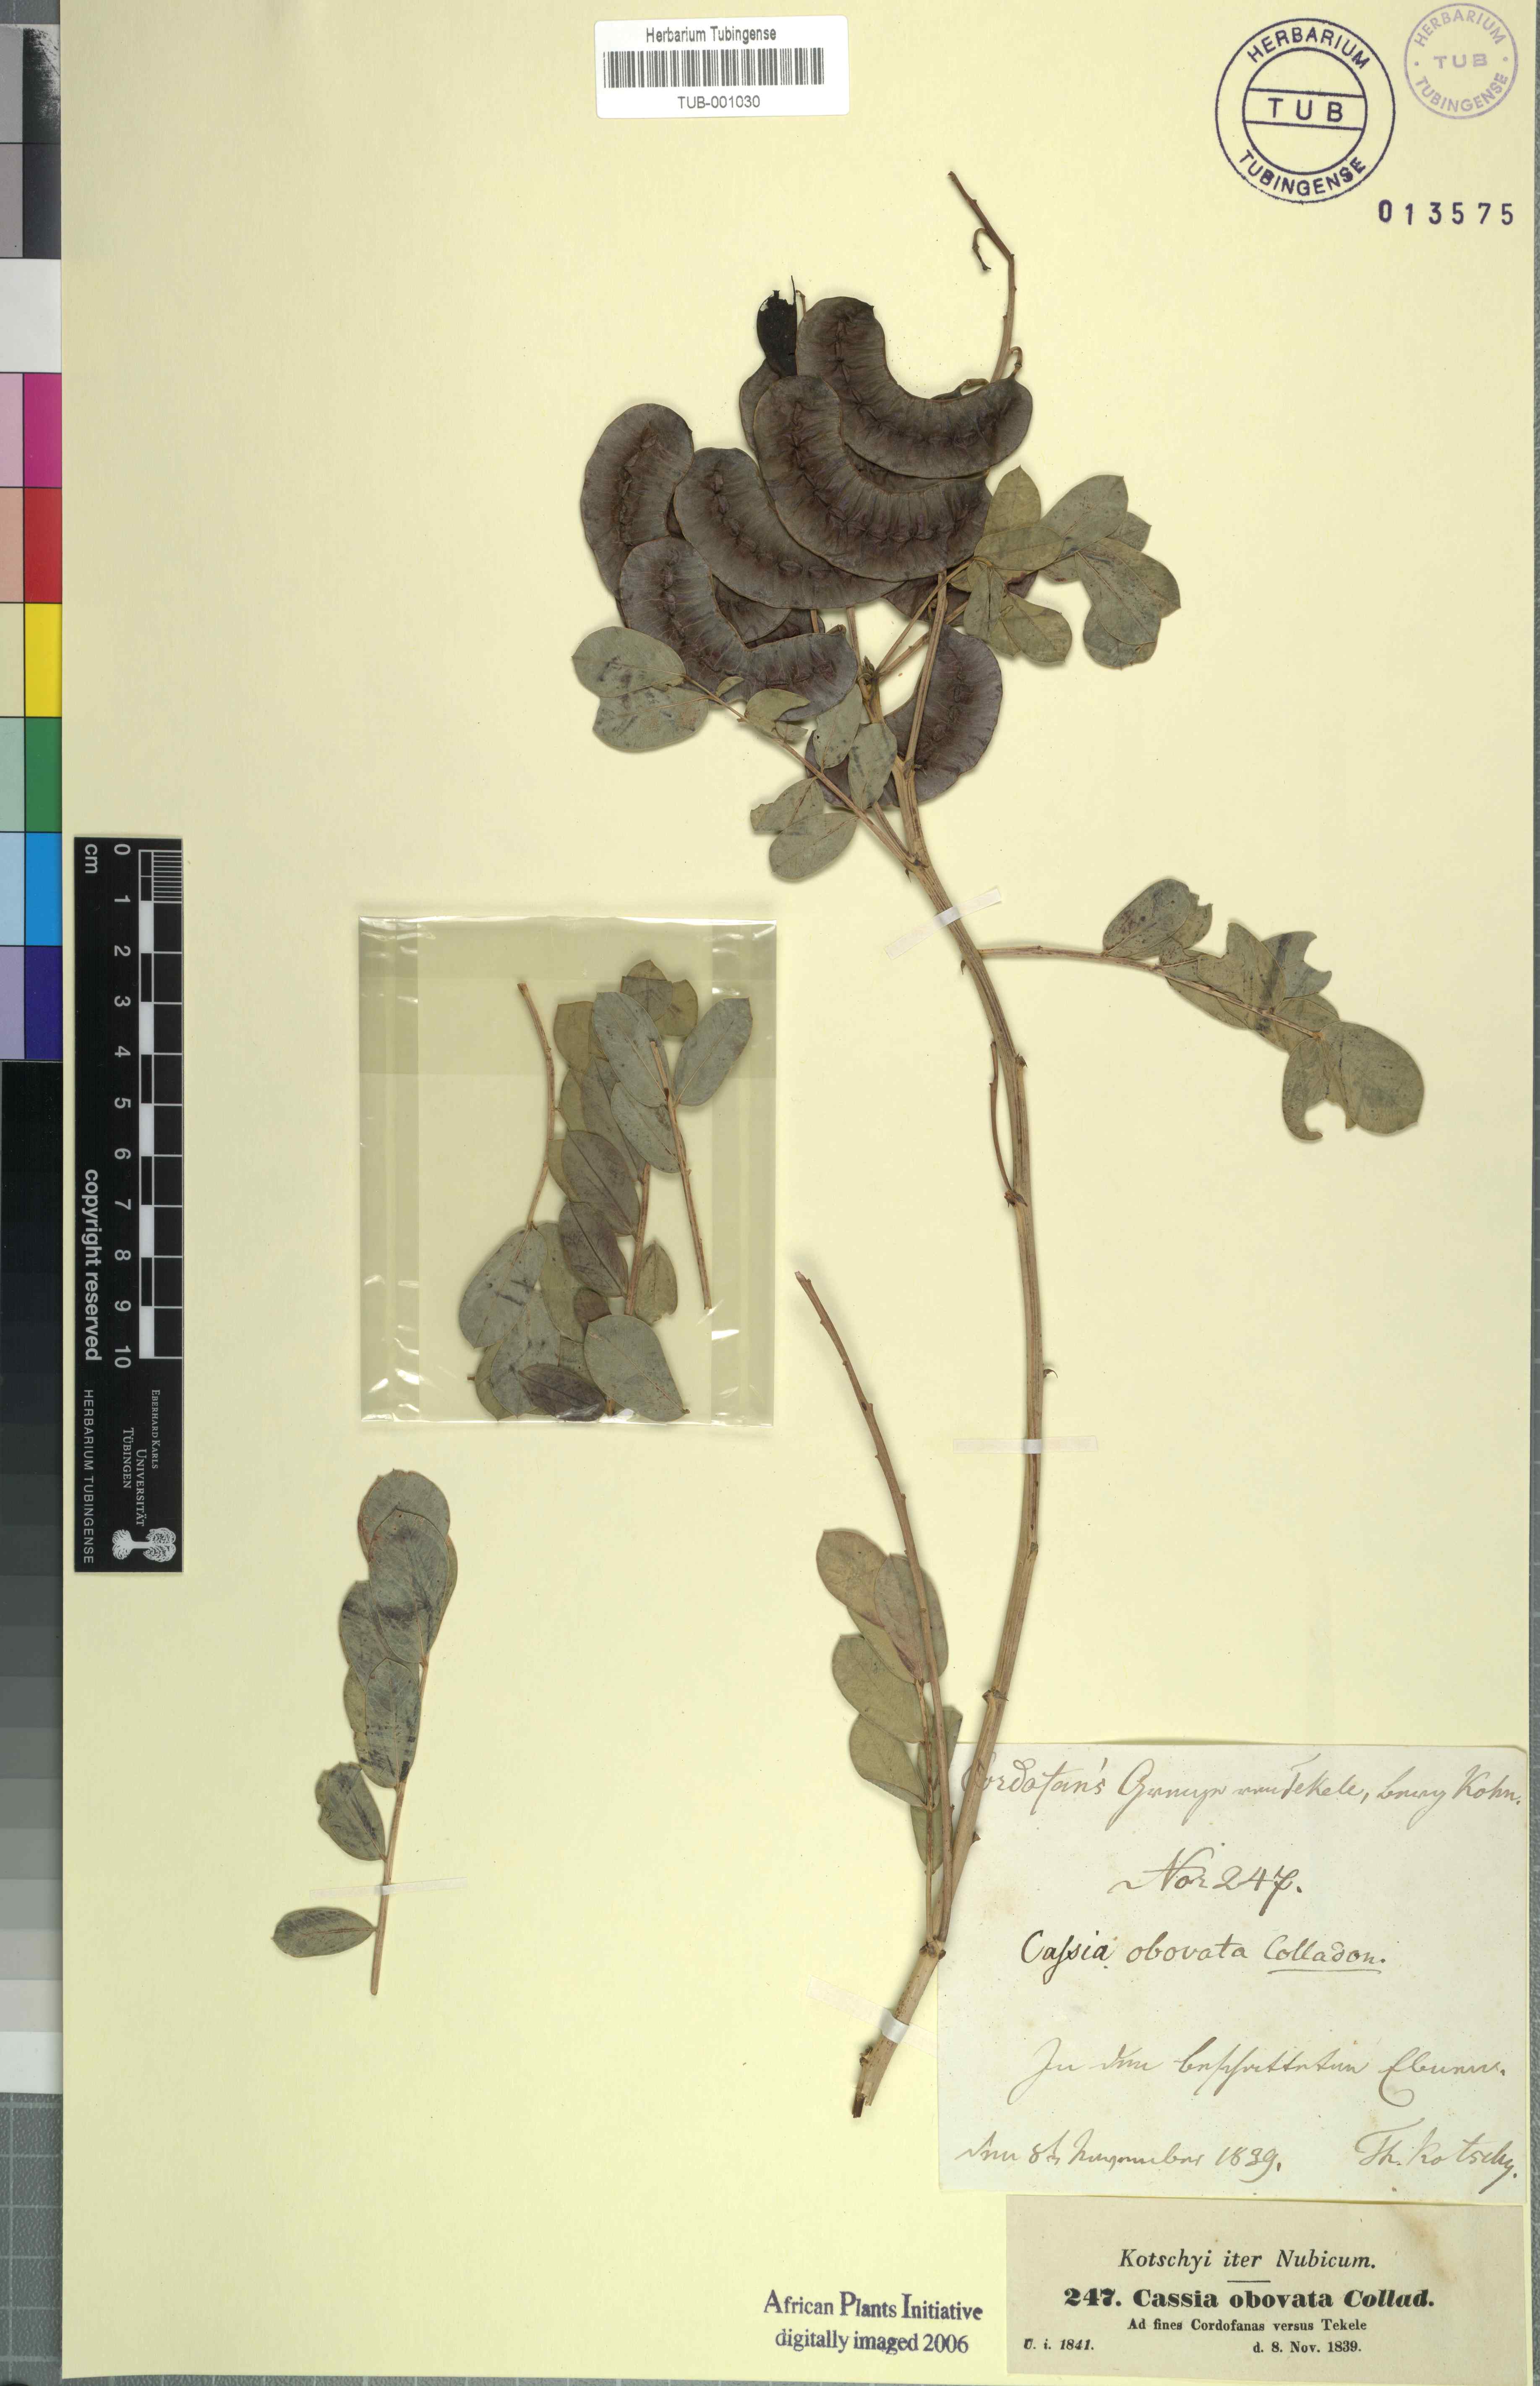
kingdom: Plantae
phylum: Tracheophyta
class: Magnoliopsida
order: Fabales
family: Fabaceae
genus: Senna
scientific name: Senna italica
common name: Port royal senna
